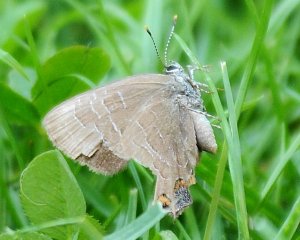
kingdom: Animalia
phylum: Arthropoda
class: Insecta
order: Lepidoptera
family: Lycaenidae
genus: Satyrium
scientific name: Satyrium liparops
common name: Striped Hairstreak
